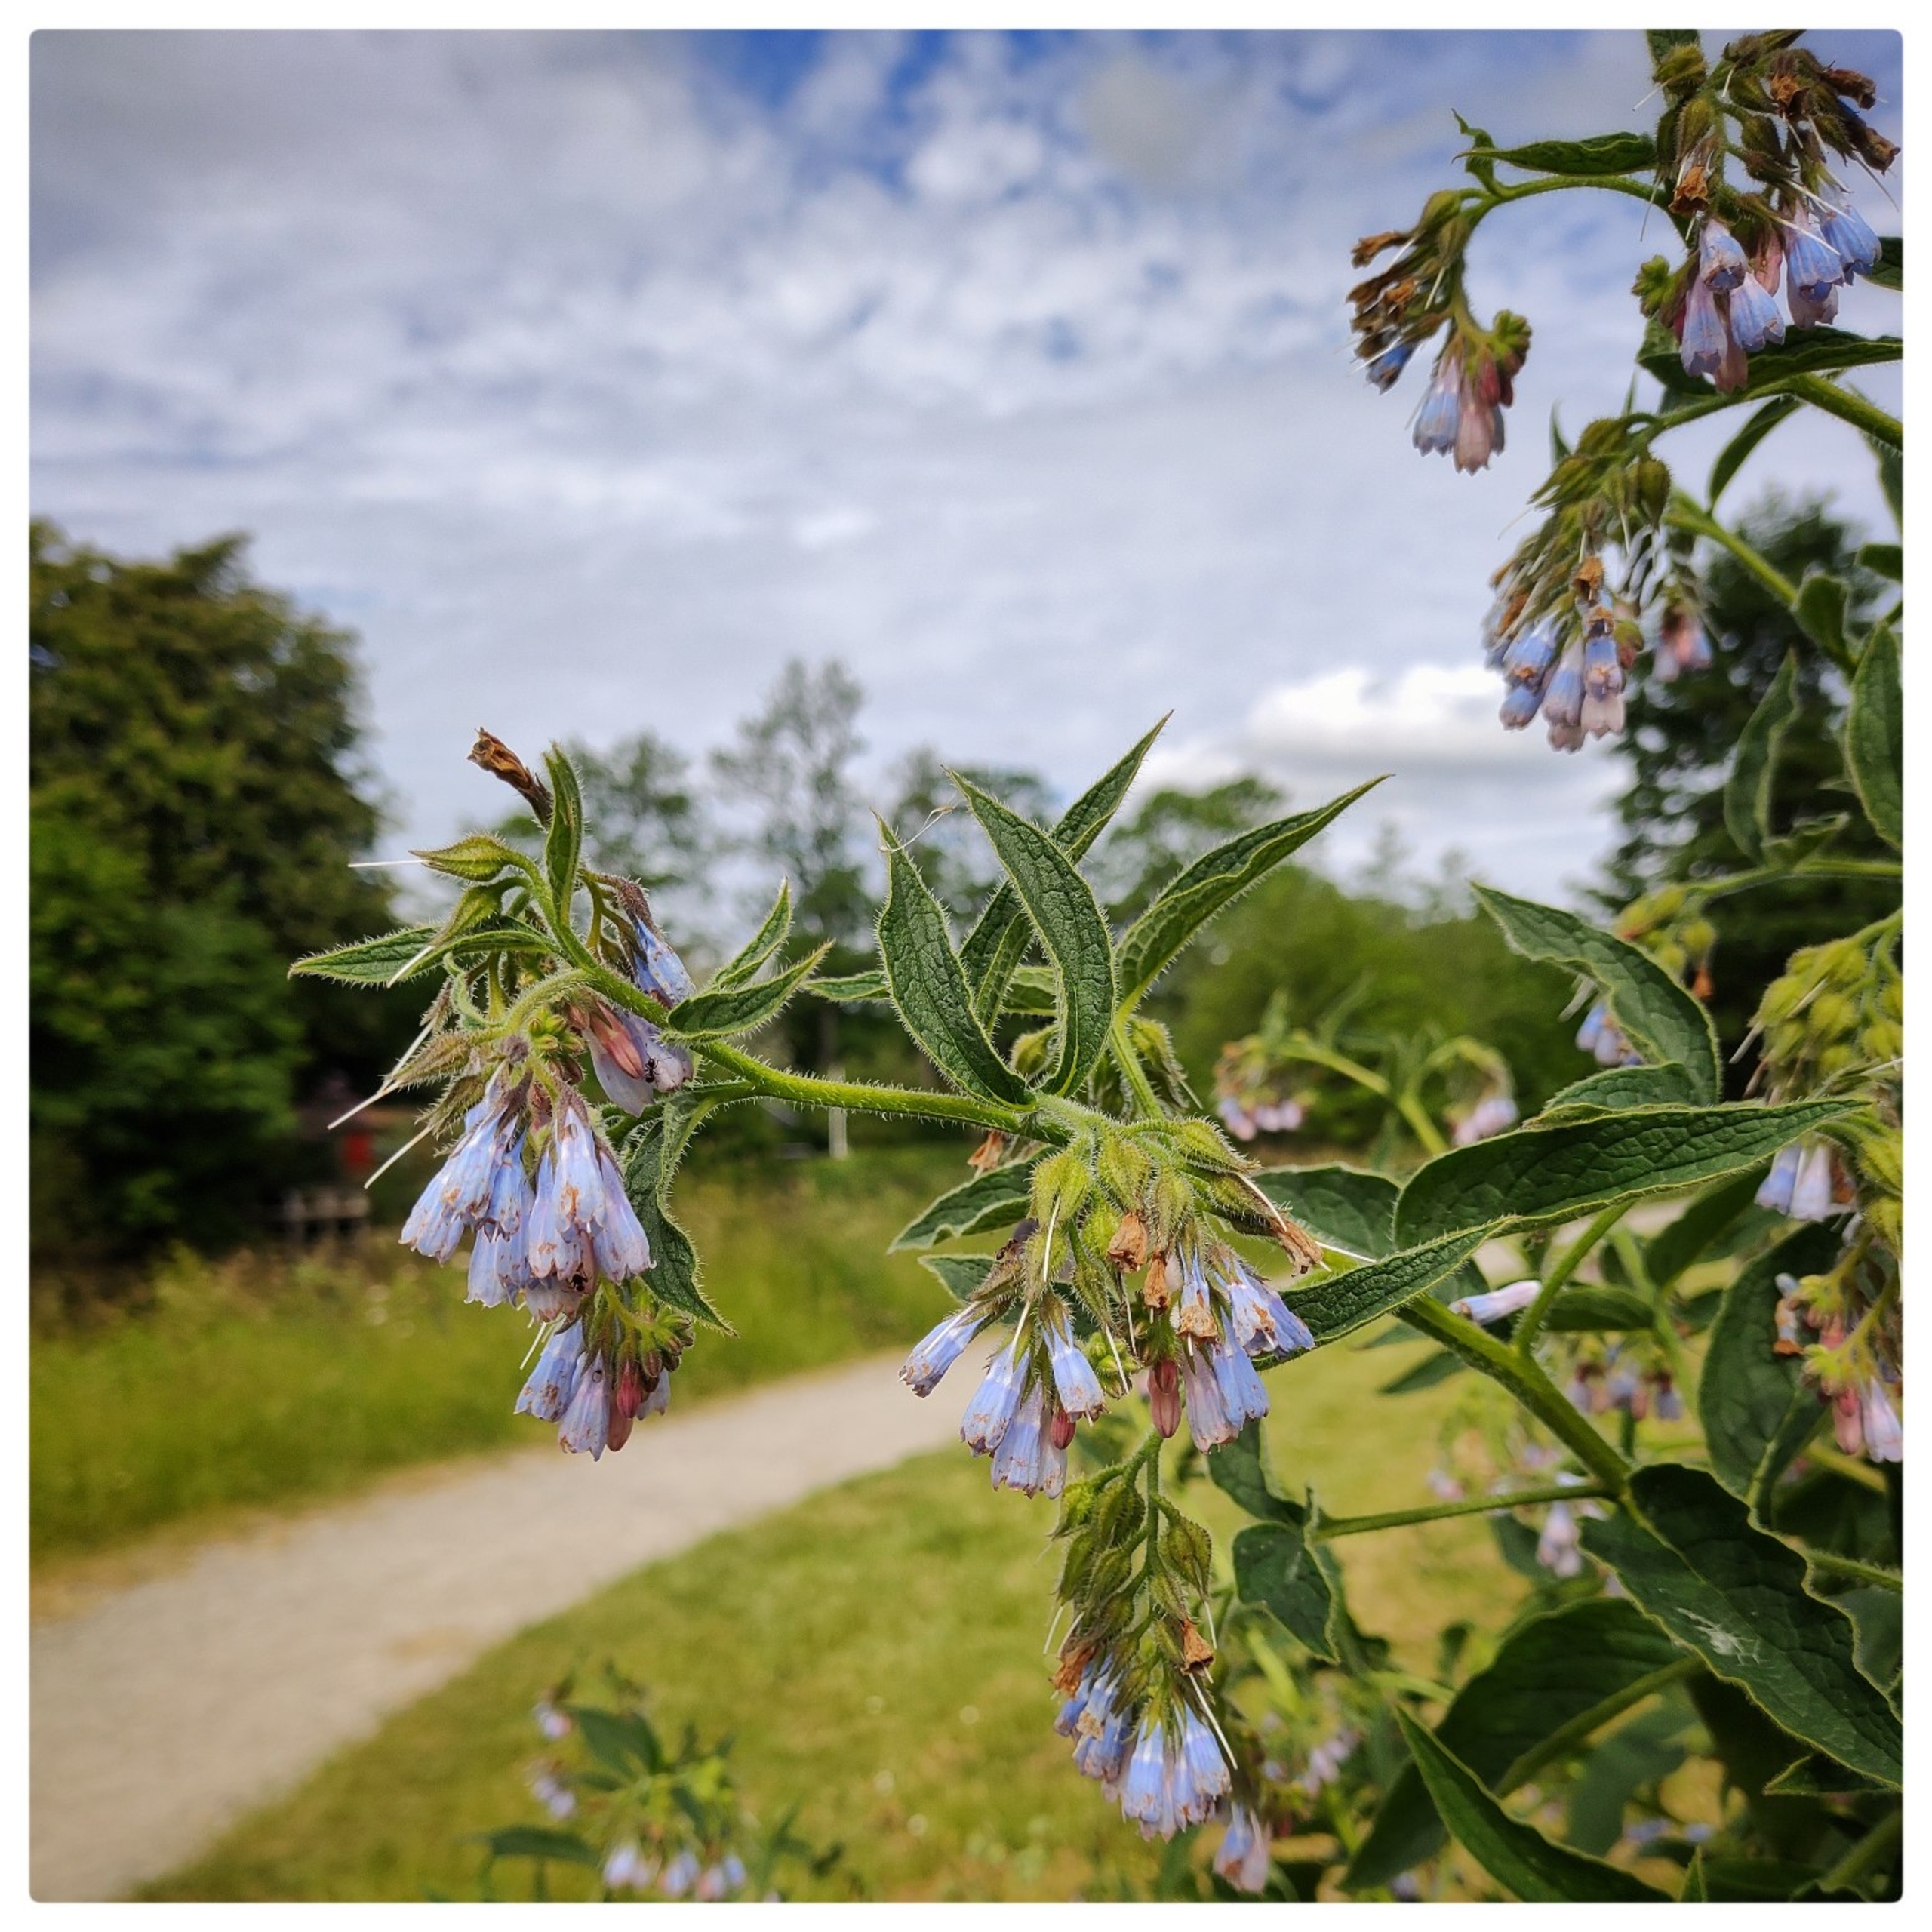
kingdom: Plantae
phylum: Tracheophyta
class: Magnoliopsida
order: Boraginales
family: Boraginaceae
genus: Symphytum
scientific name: Symphytum uplandicum
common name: Foder-kulsukker
